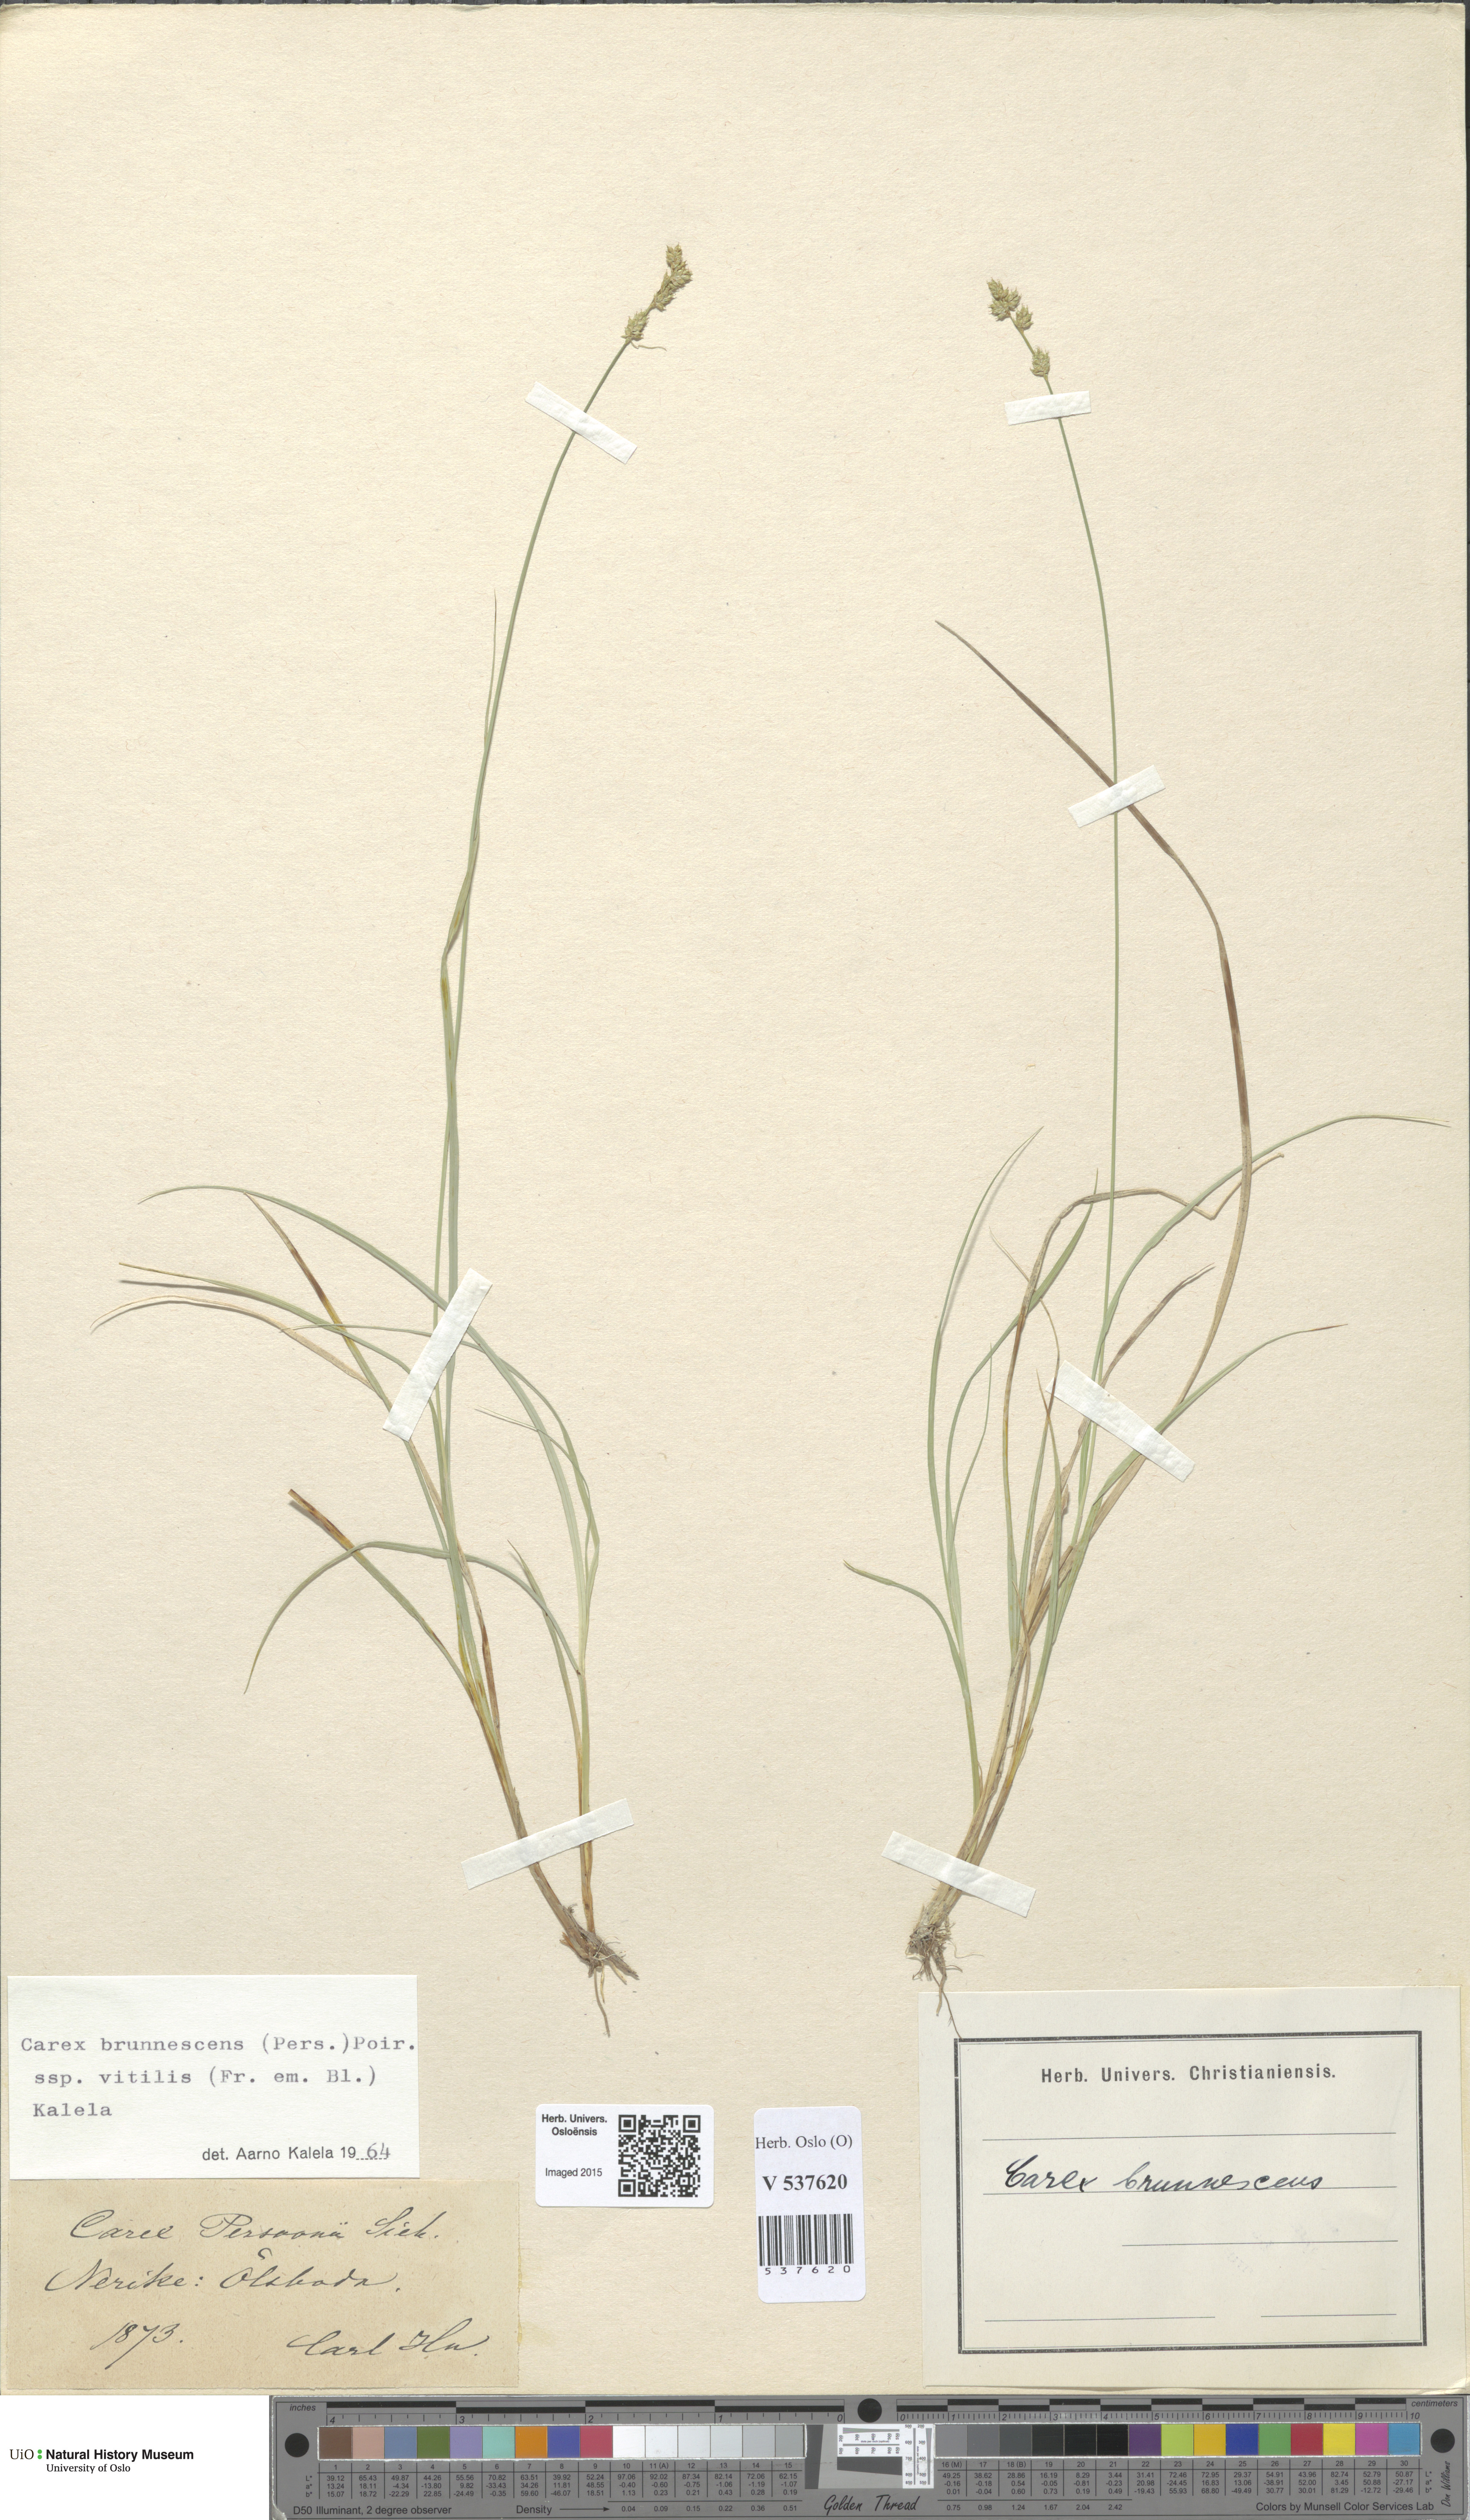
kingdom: Plantae
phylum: Tracheophyta
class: Liliopsida
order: Poales
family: Cyperaceae
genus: Carex
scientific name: Carex brunnescens
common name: Brown sedge
